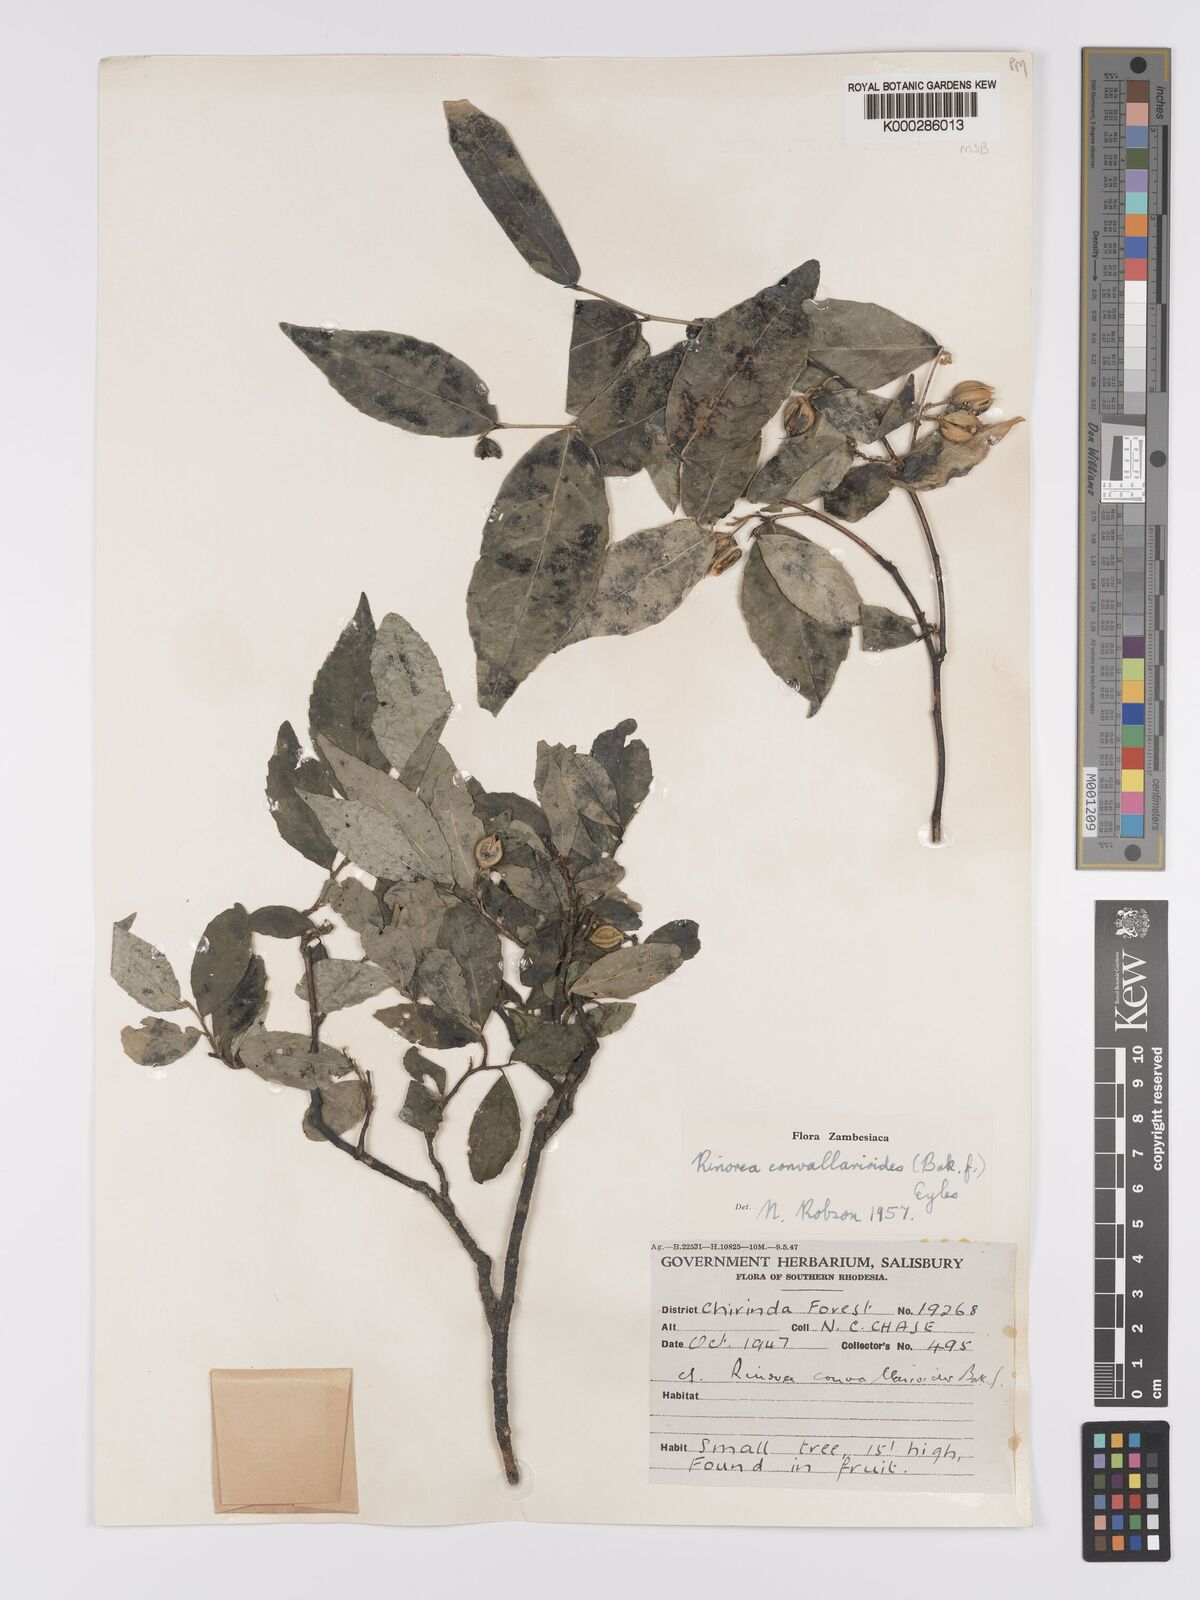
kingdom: Plantae
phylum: Tracheophyta
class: Magnoliopsida
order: Malpighiales
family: Violaceae
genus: Rinorea
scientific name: Rinorea convallarioides
